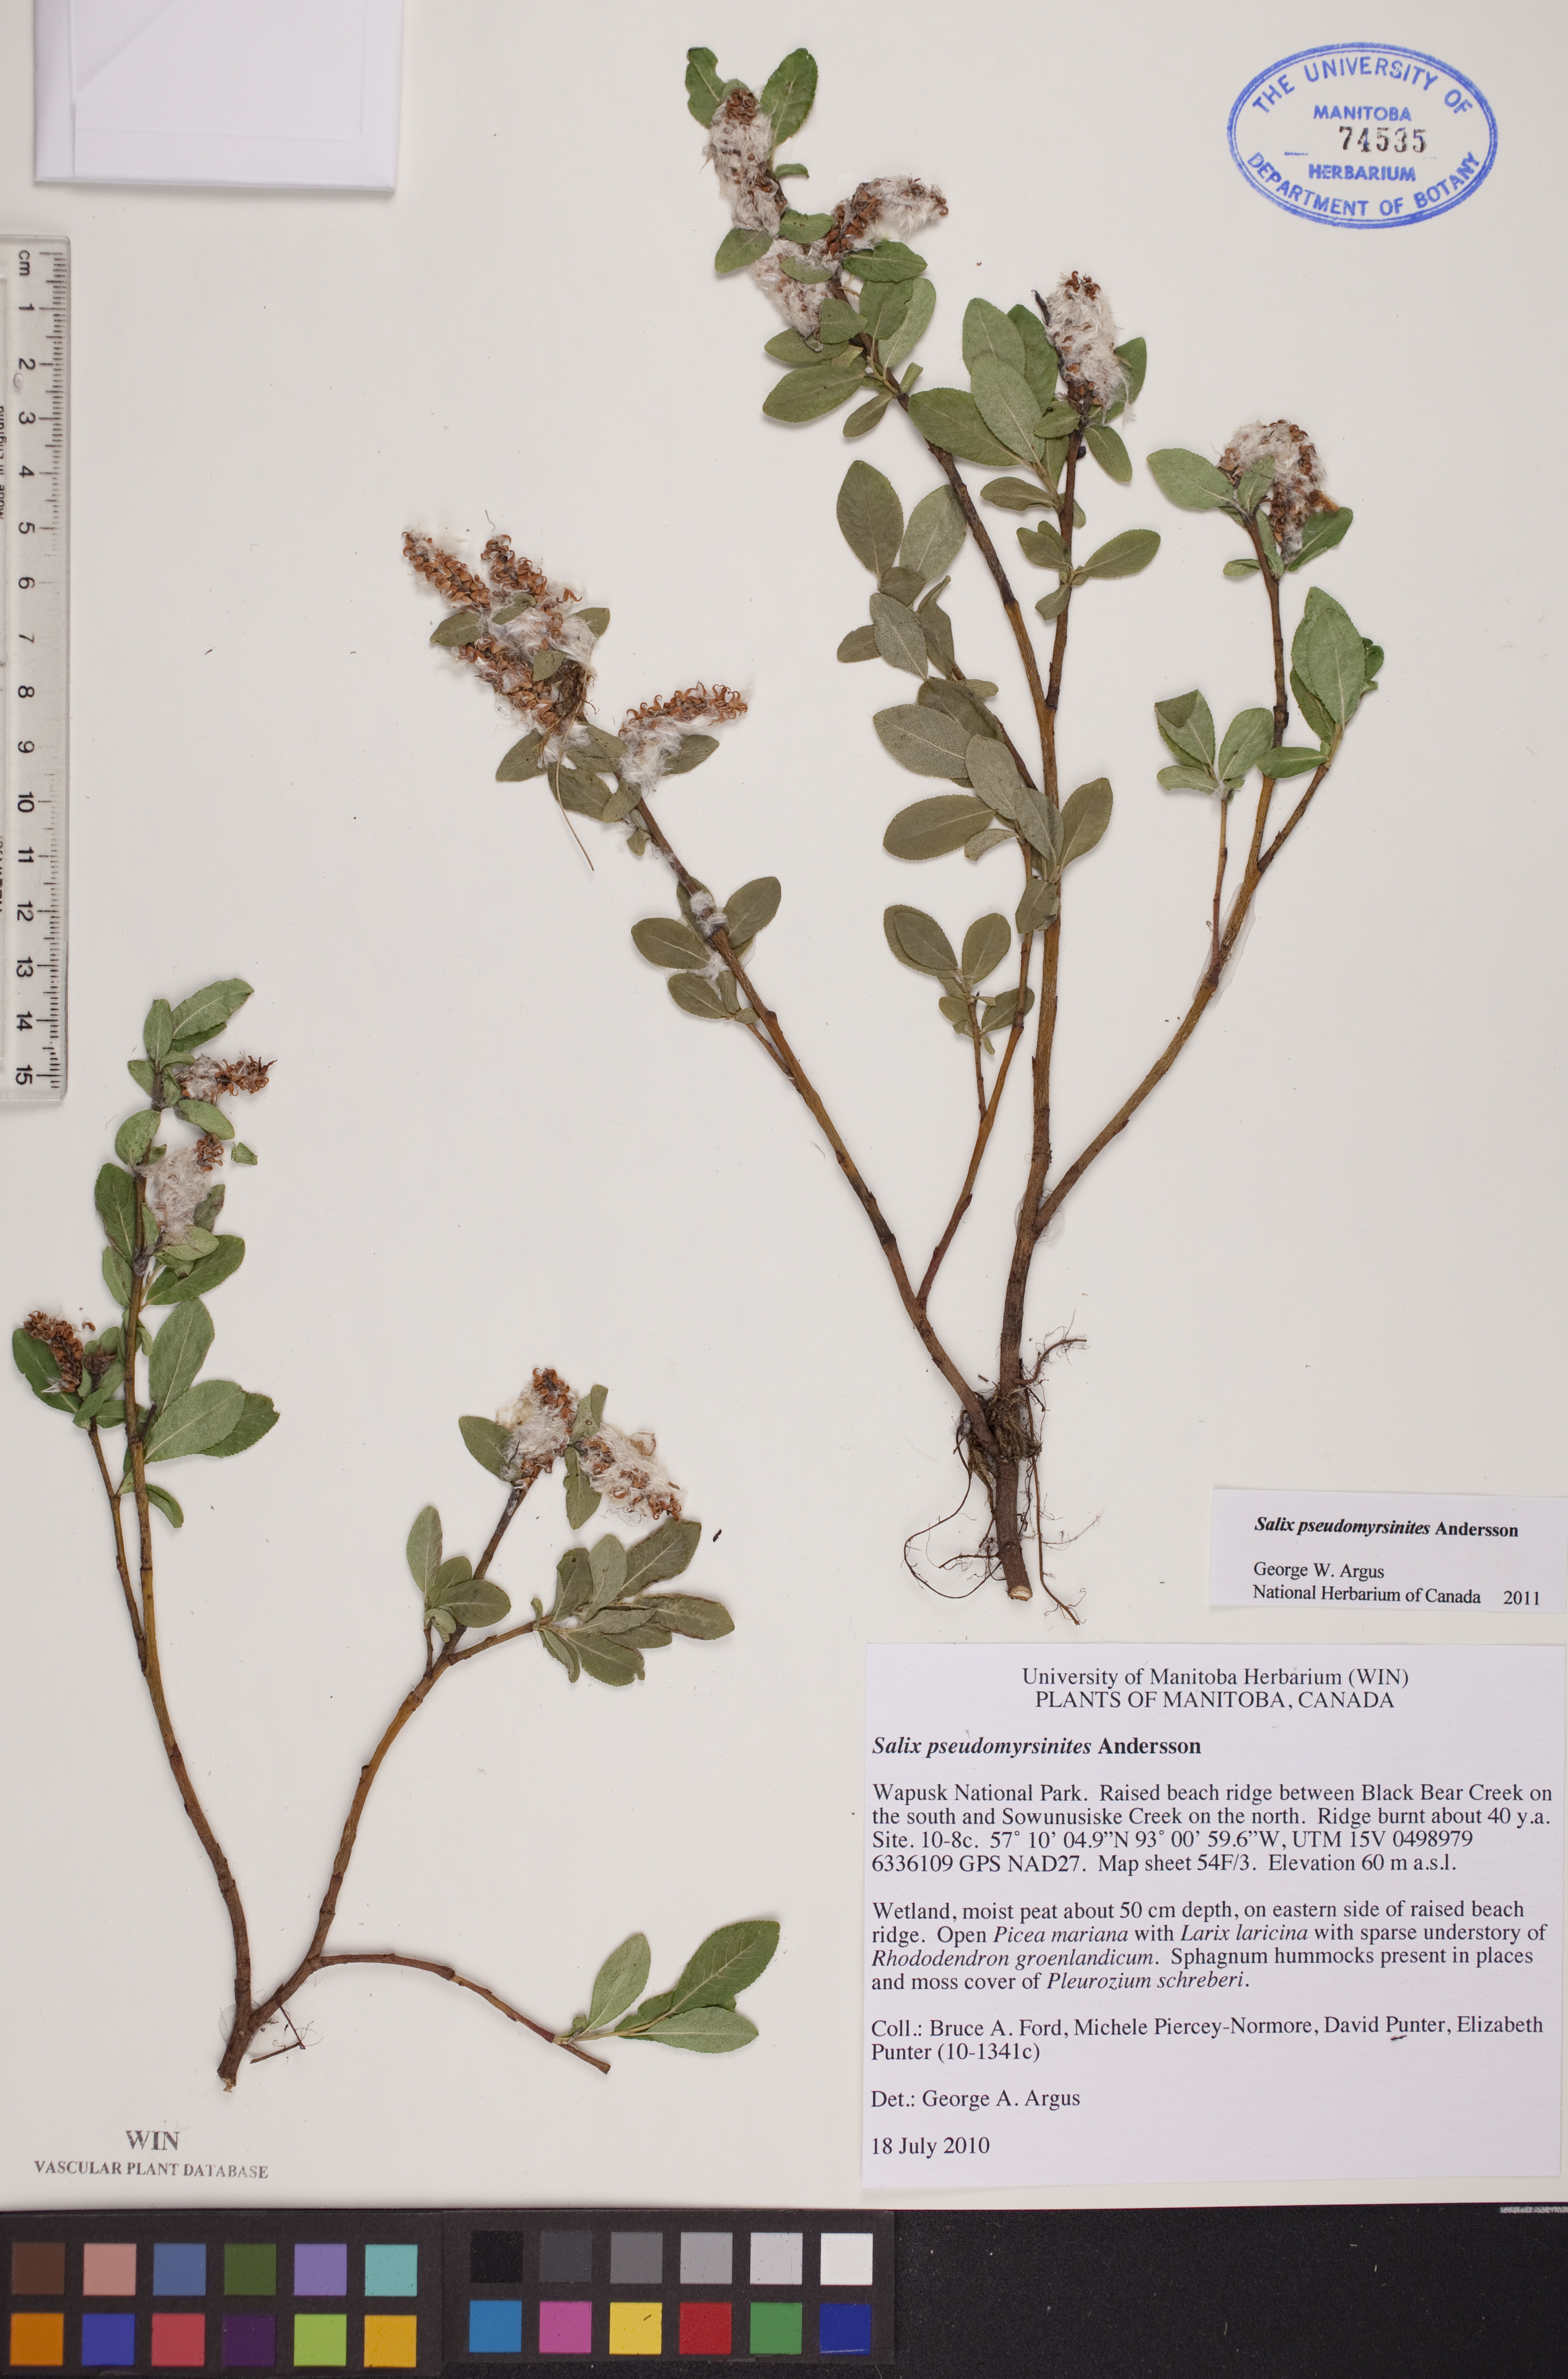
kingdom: Plantae
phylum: Tracheophyta
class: Magnoliopsida
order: Malpighiales
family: Salicaceae
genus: Salix
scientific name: Salix pseudomyrsinites
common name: Tall blueberry willow
